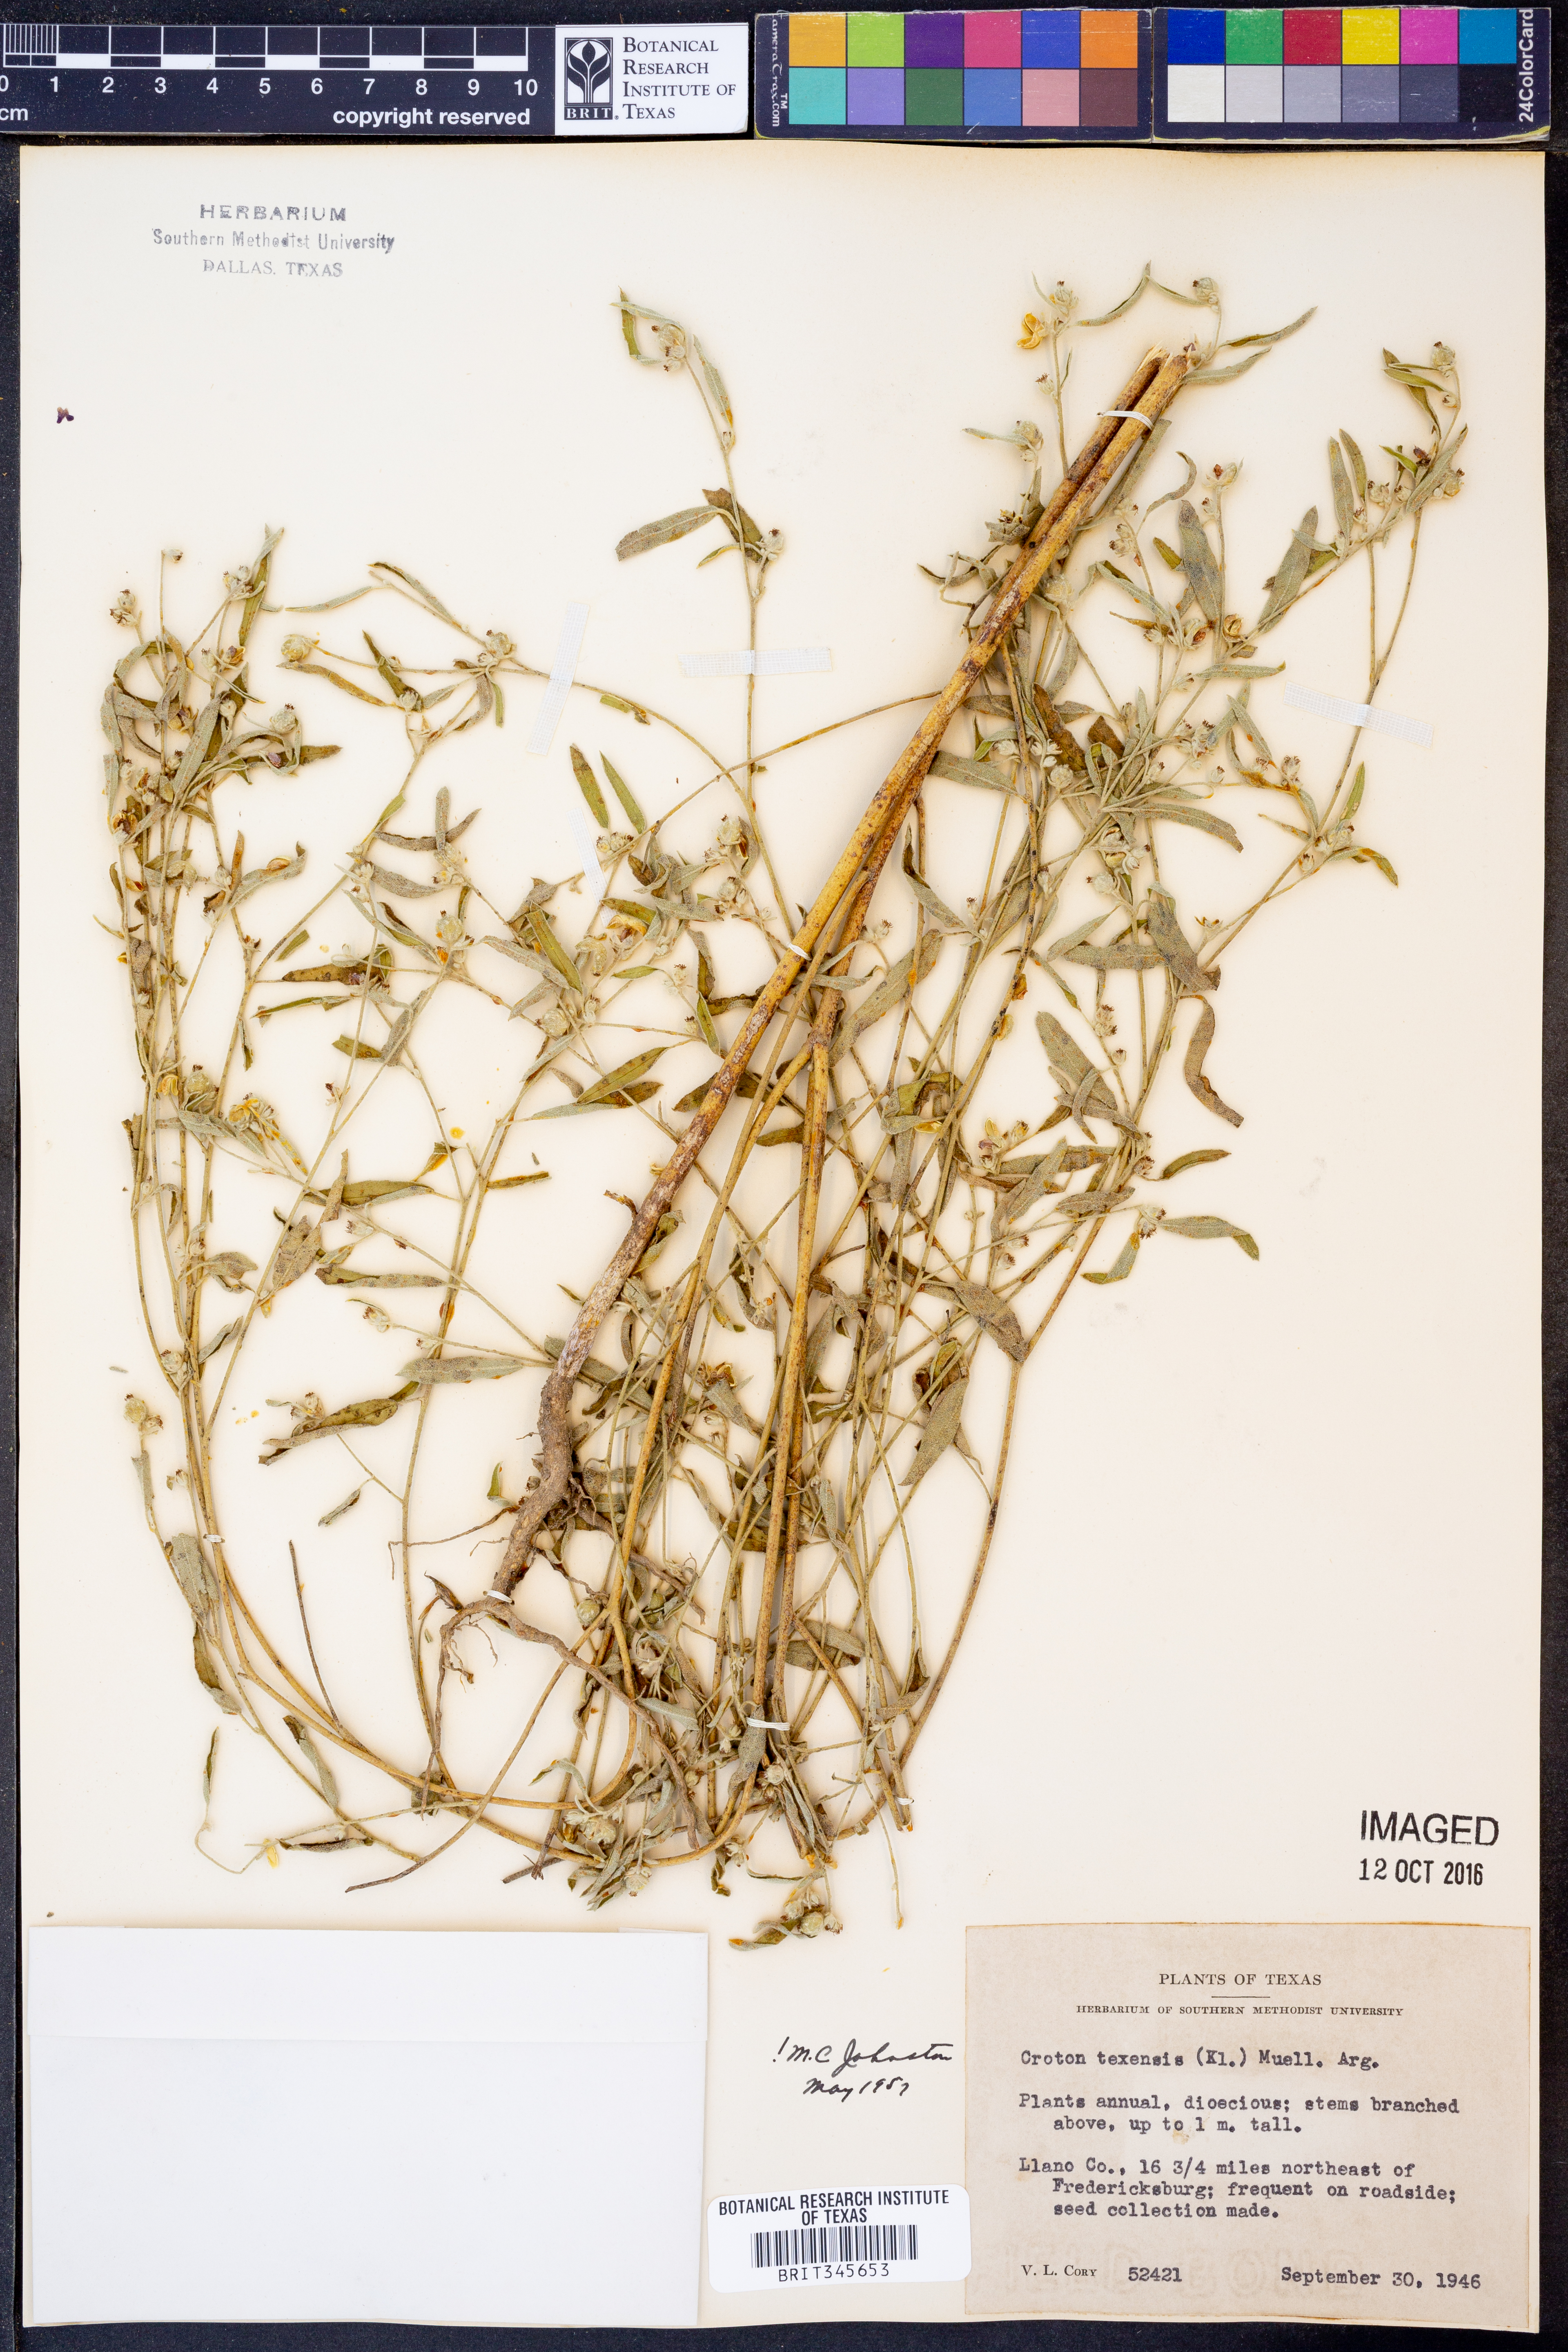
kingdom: Plantae
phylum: Tracheophyta
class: Magnoliopsida
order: Malpighiales
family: Euphorbiaceae
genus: Croton
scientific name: Croton texensis
